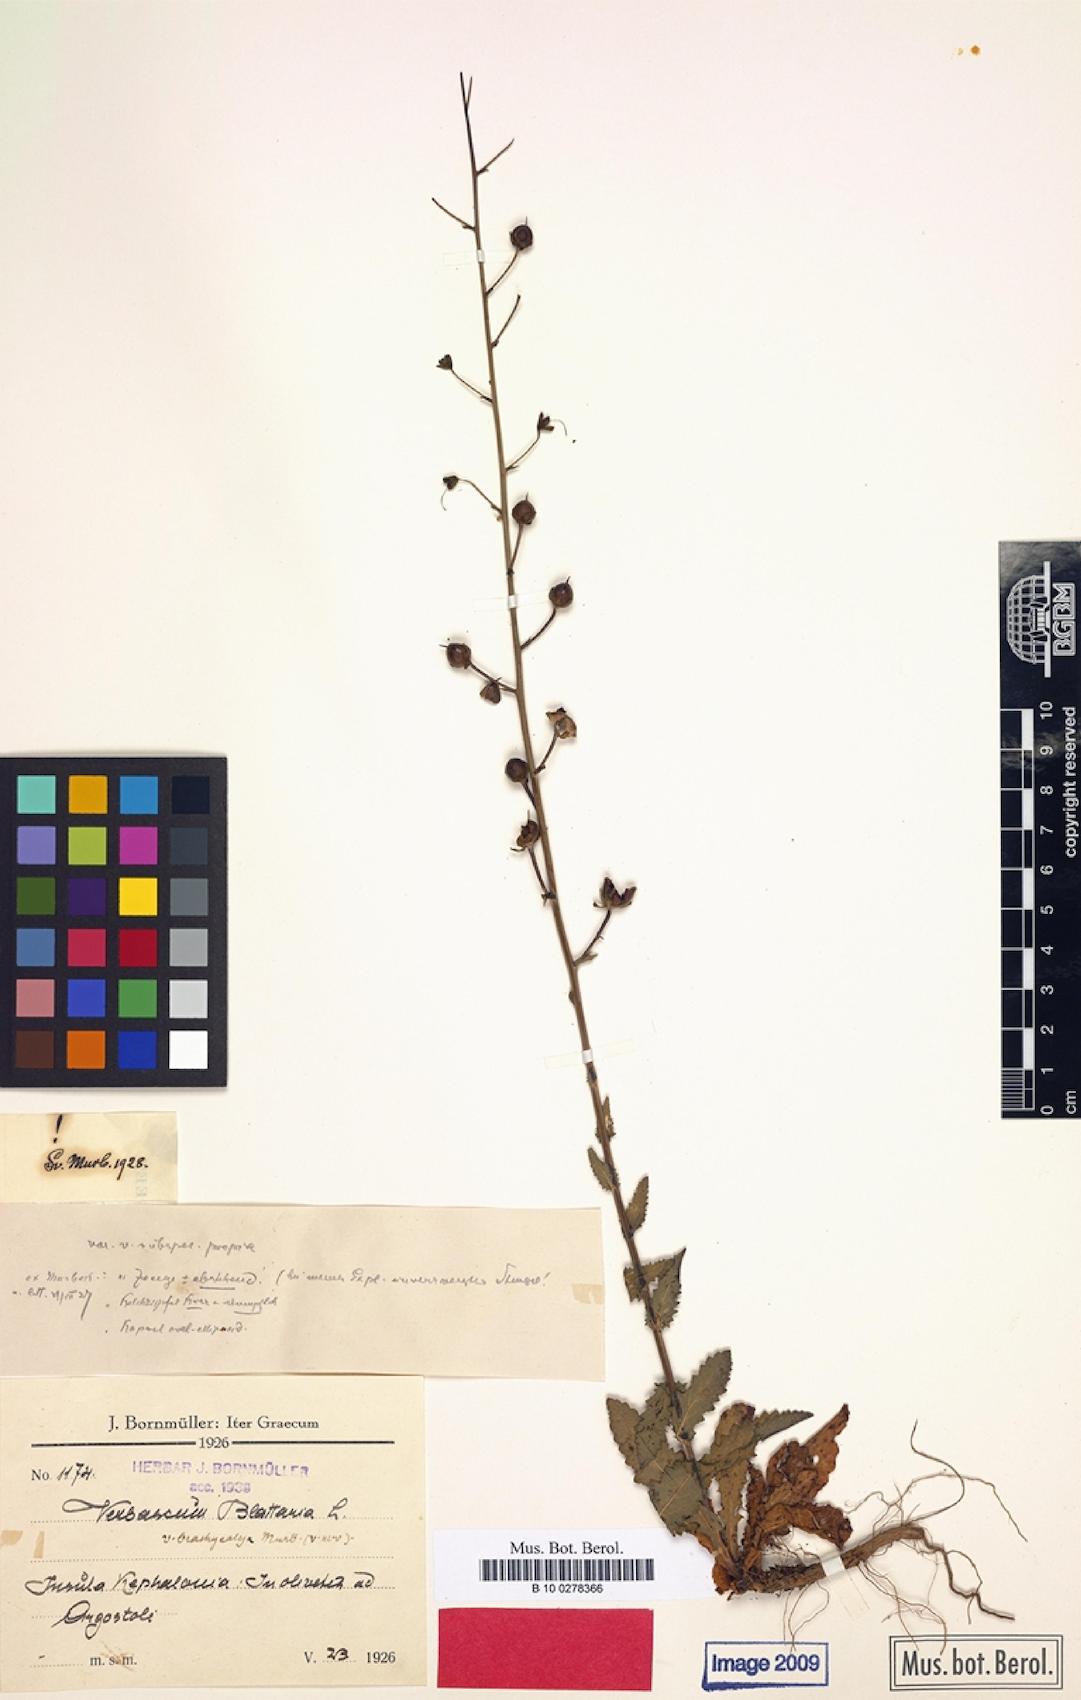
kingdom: Plantae
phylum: Tracheophyta
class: Magnoliopsida
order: Lamiales
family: Scrophulariaceae
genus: Verbascum
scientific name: Verbascum blattaria
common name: Moth mullein
